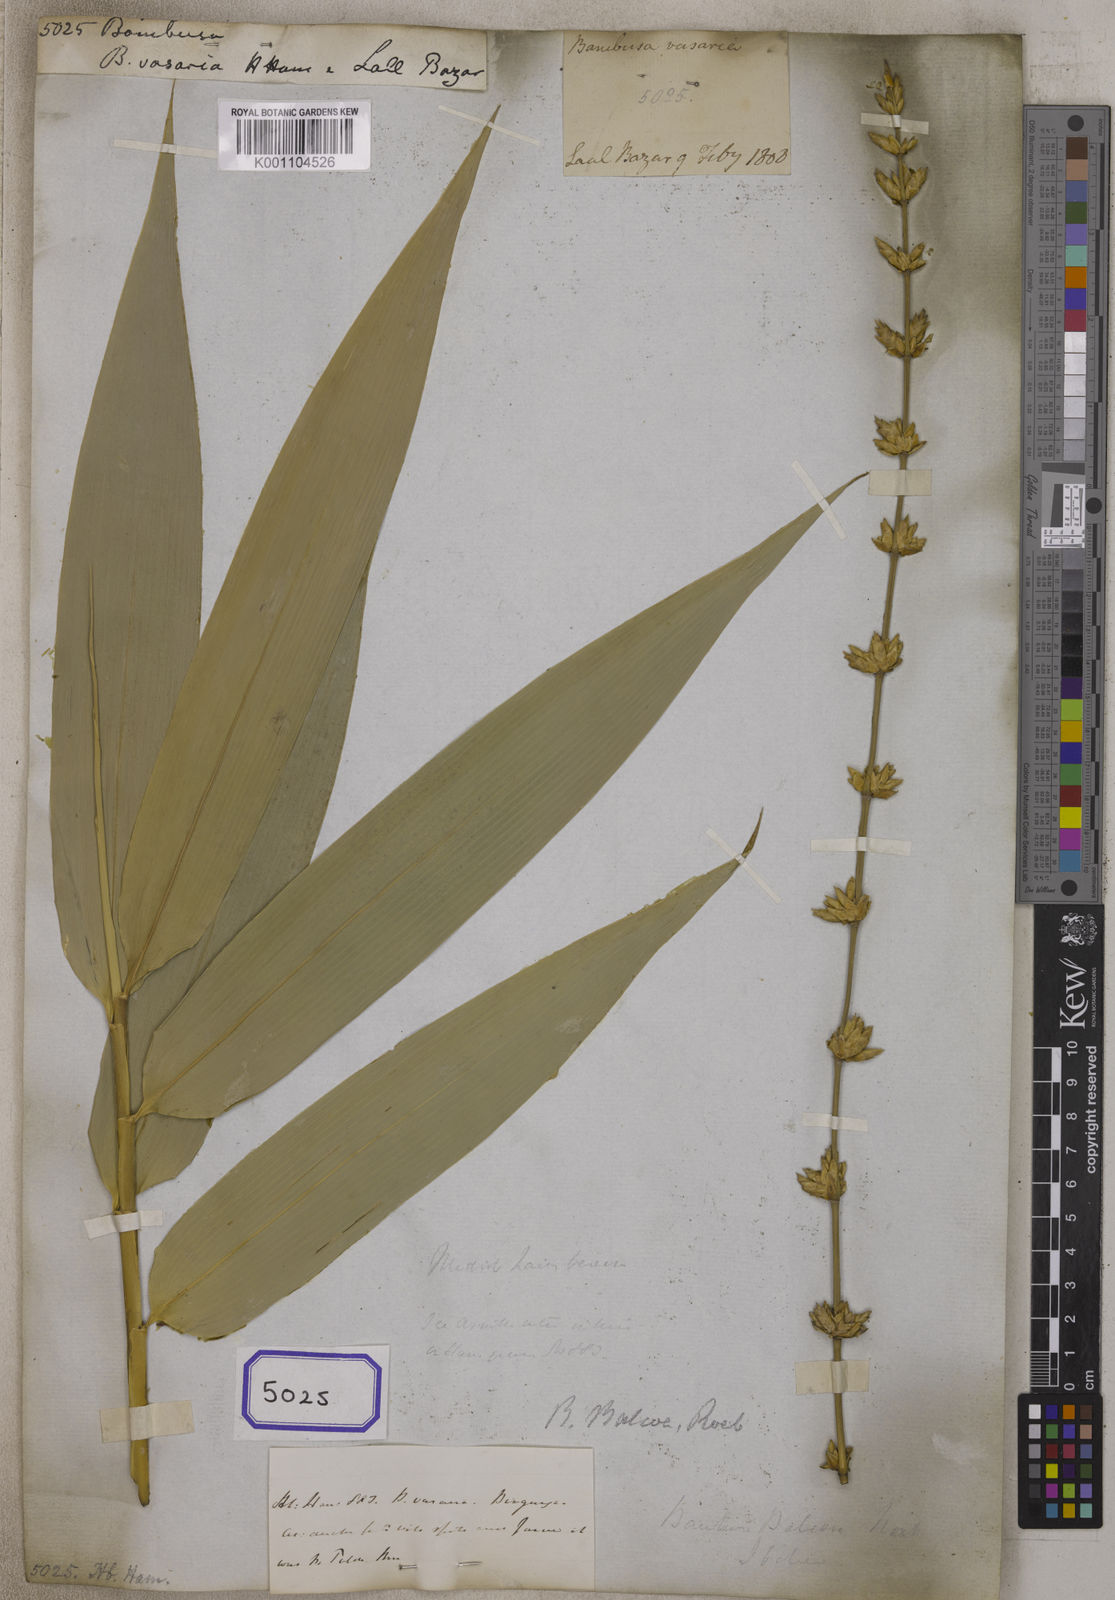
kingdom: Plantae
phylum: Tracheophyta
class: Liliopsida
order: Poales
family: Poaceae
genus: Bambusa
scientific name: Bambusa
